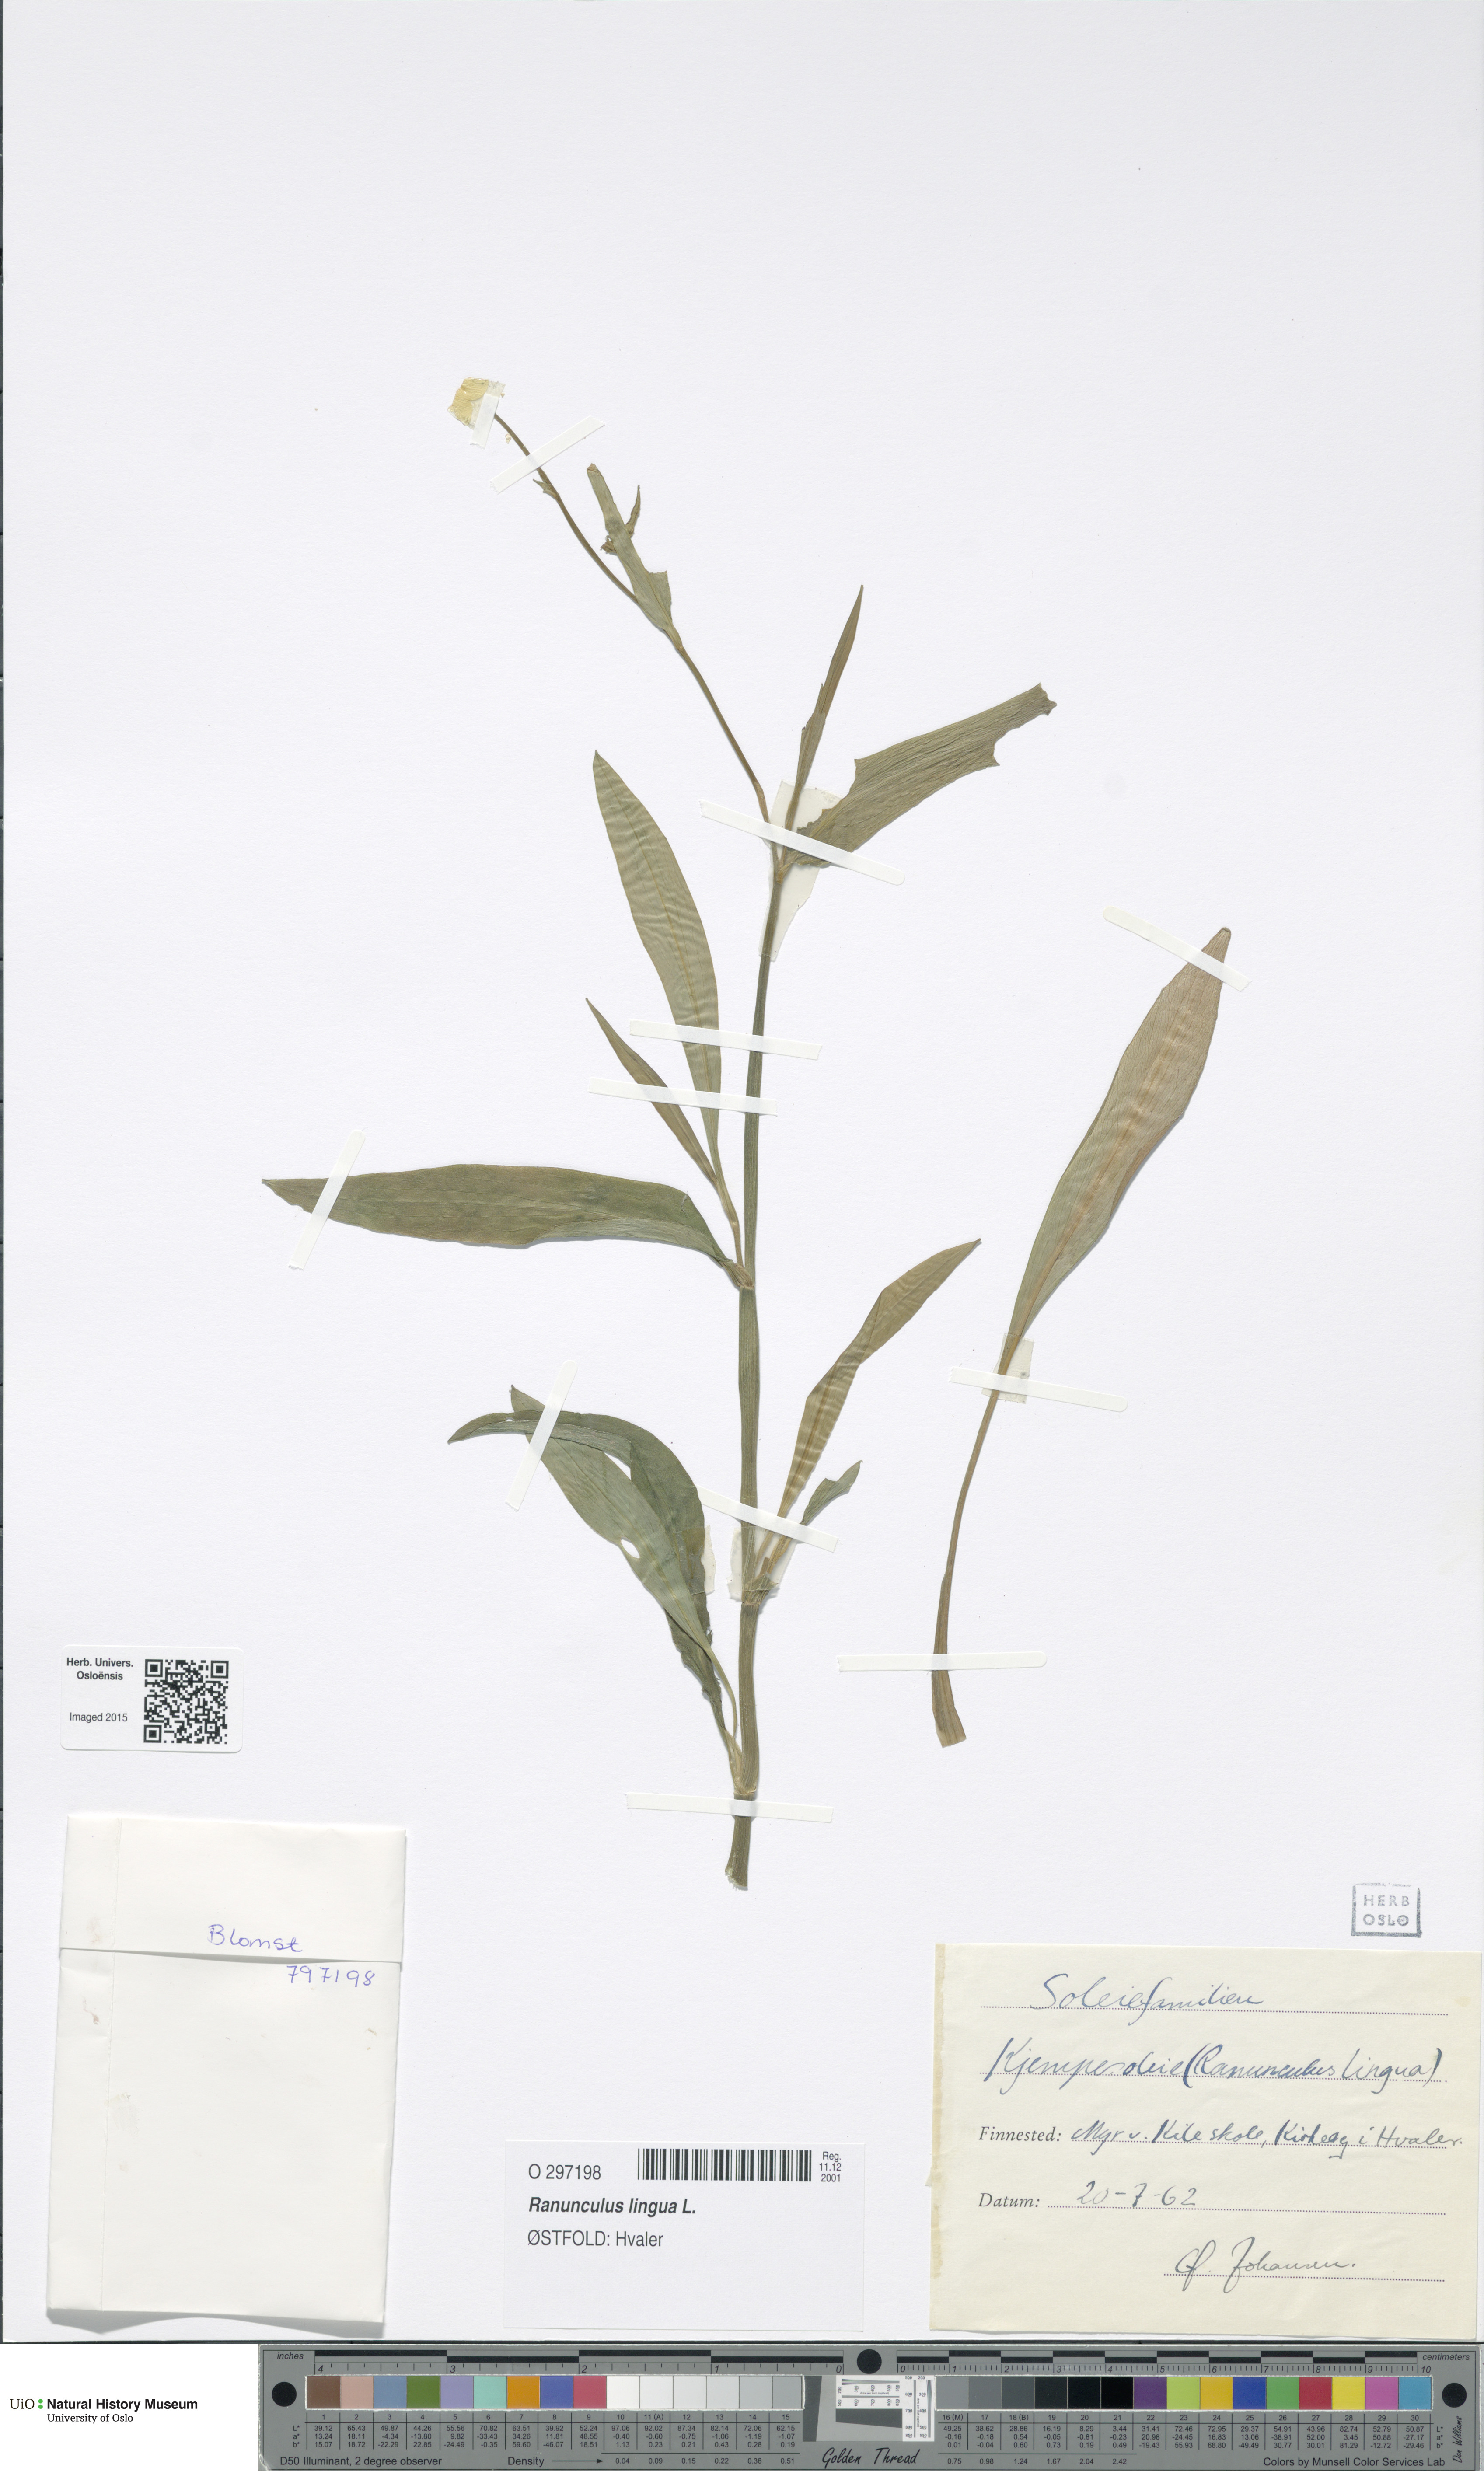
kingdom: Plantae
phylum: Tracheophyta
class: Magnoliopsida
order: Ranunculales
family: Ranunculaceae
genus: Ranunculus
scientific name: Ranunculus lingua
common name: Greater spearwort
